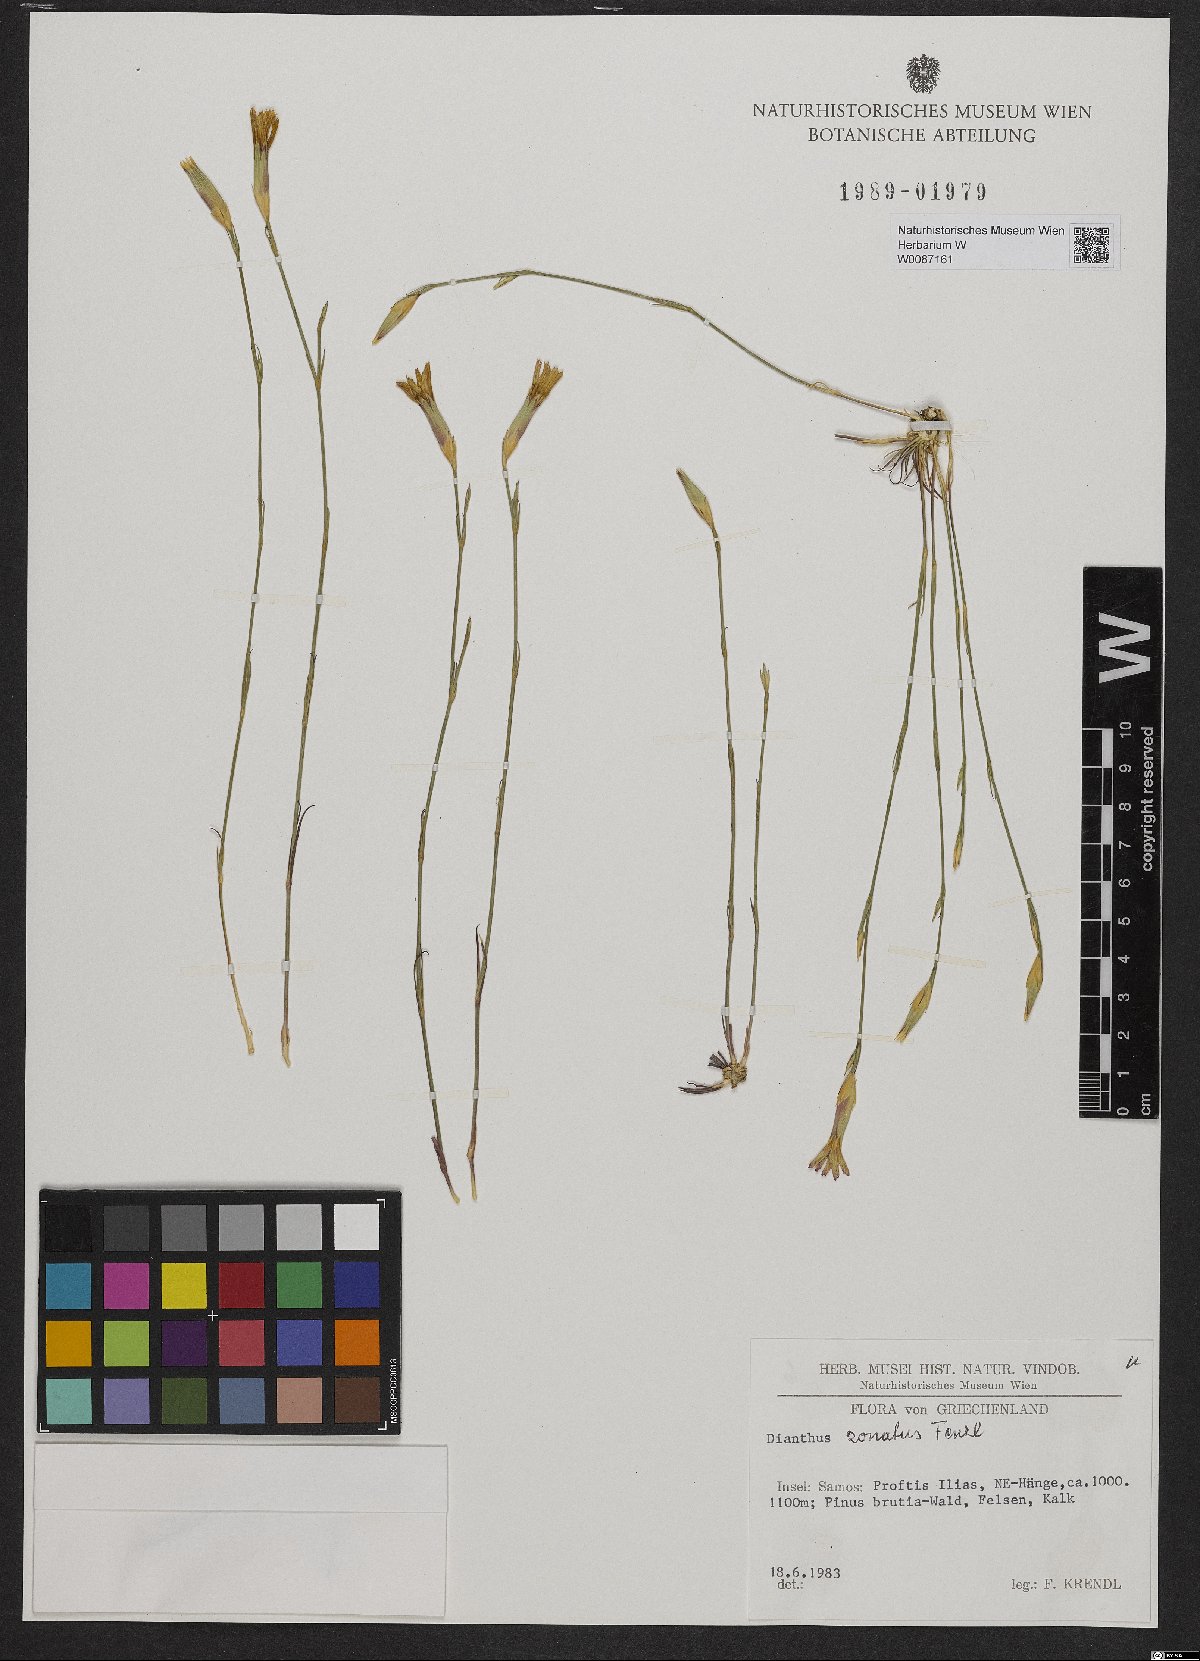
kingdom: Plantae
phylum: Tracheophyta
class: Magnoliopsida
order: Caryophyllales
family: Caryophyllaceae
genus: Dianthus
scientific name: Dianthus zonatus
